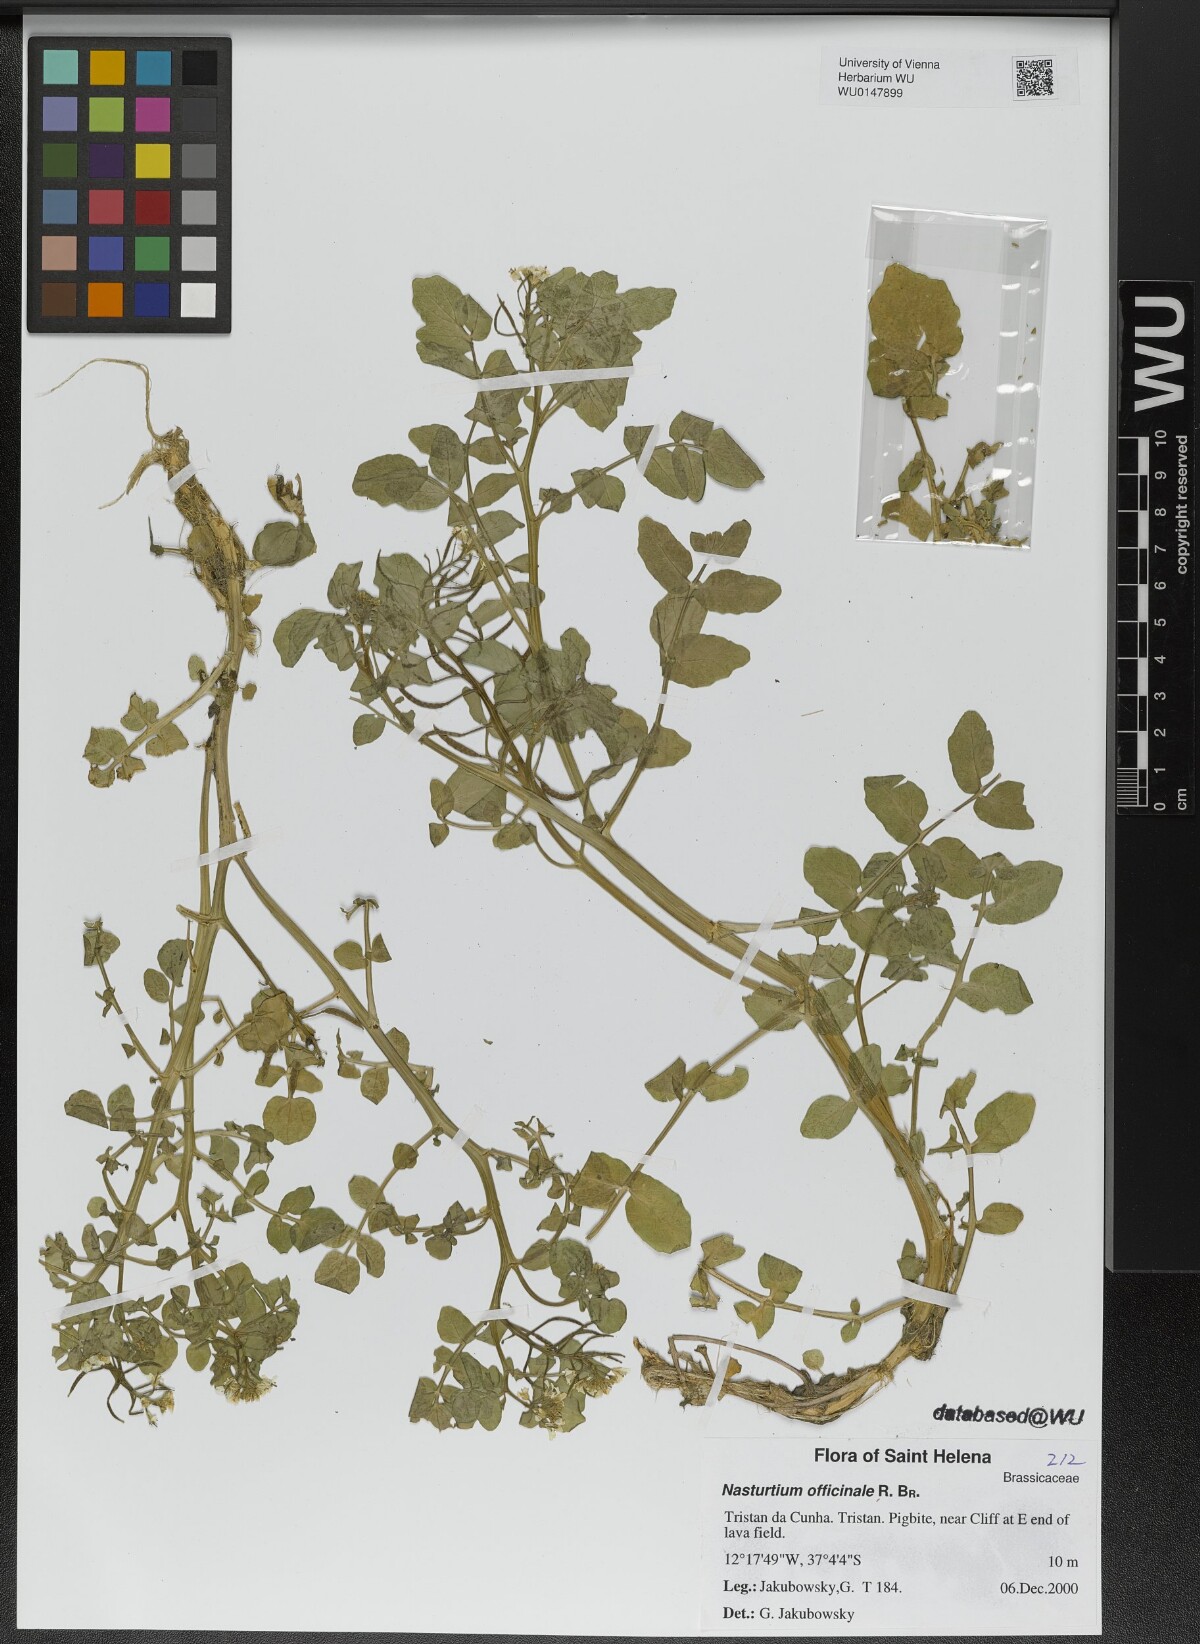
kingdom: Plantae
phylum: Tracheophyta
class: Magnoliopsida
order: Brassicales
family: Brassicaceae
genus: Nasturtium
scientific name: Nasturtium officinale
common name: Watercress
